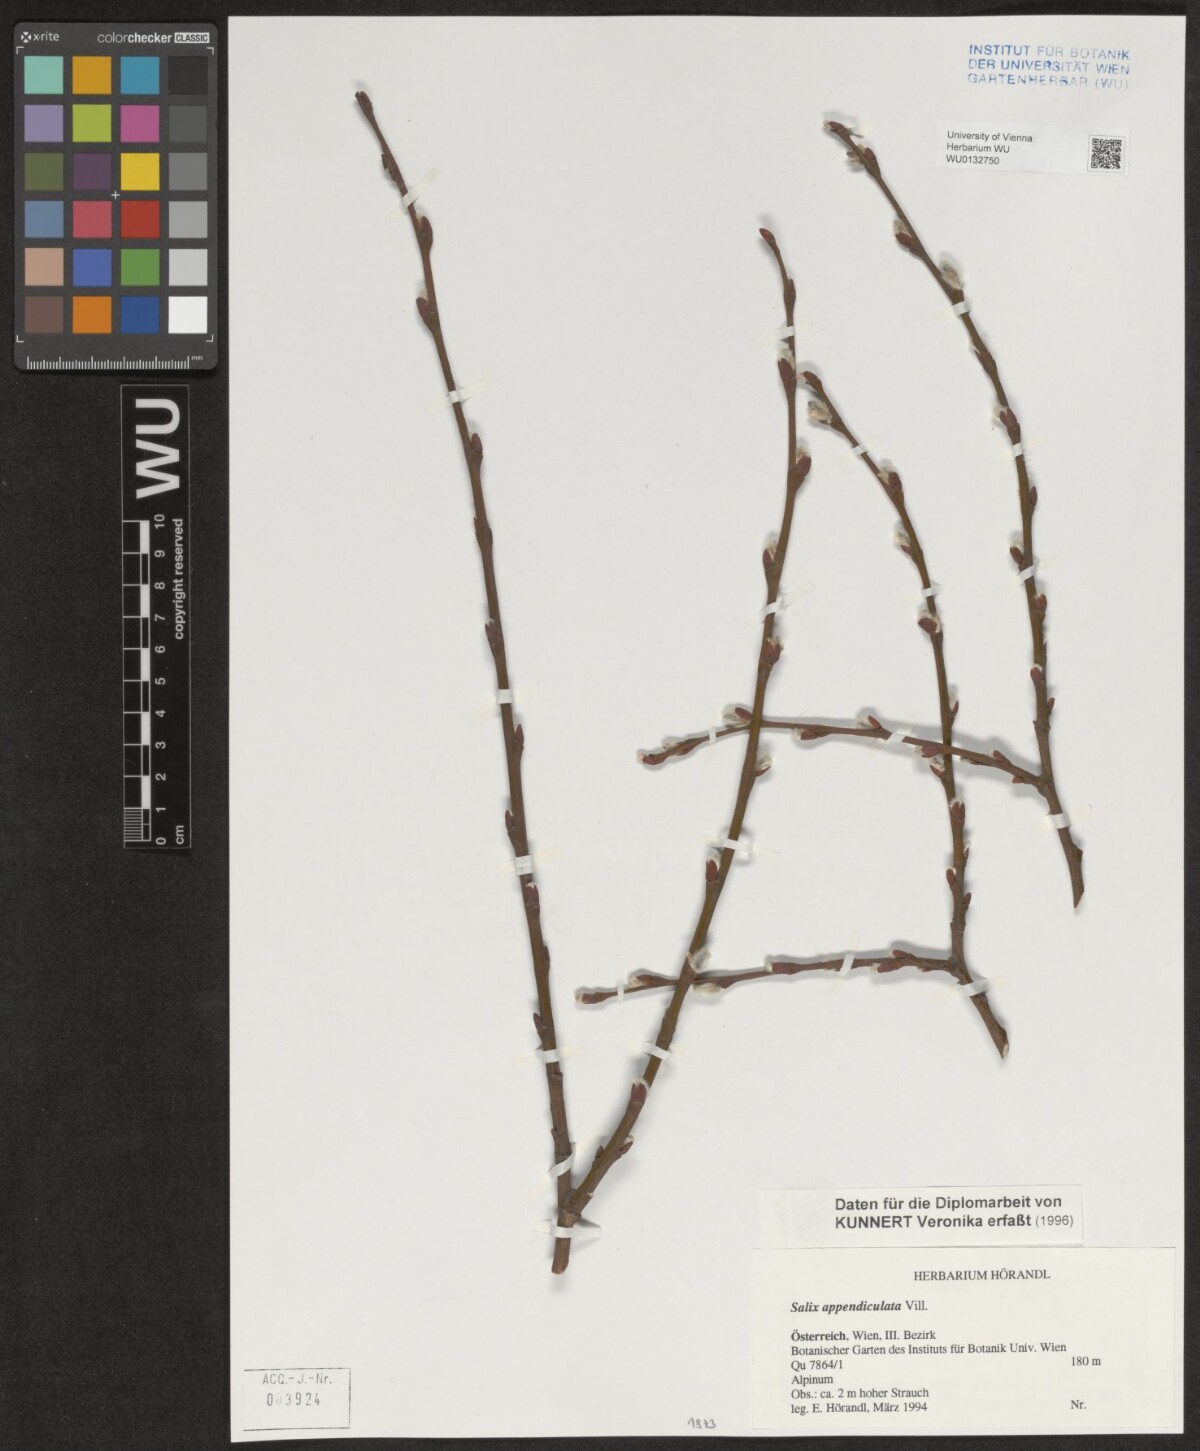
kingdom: Plantae
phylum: Tracheophyta
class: Magnoliopsida
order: Malpighiales
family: Salicaceae
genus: Salix
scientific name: Salix appendiculata
